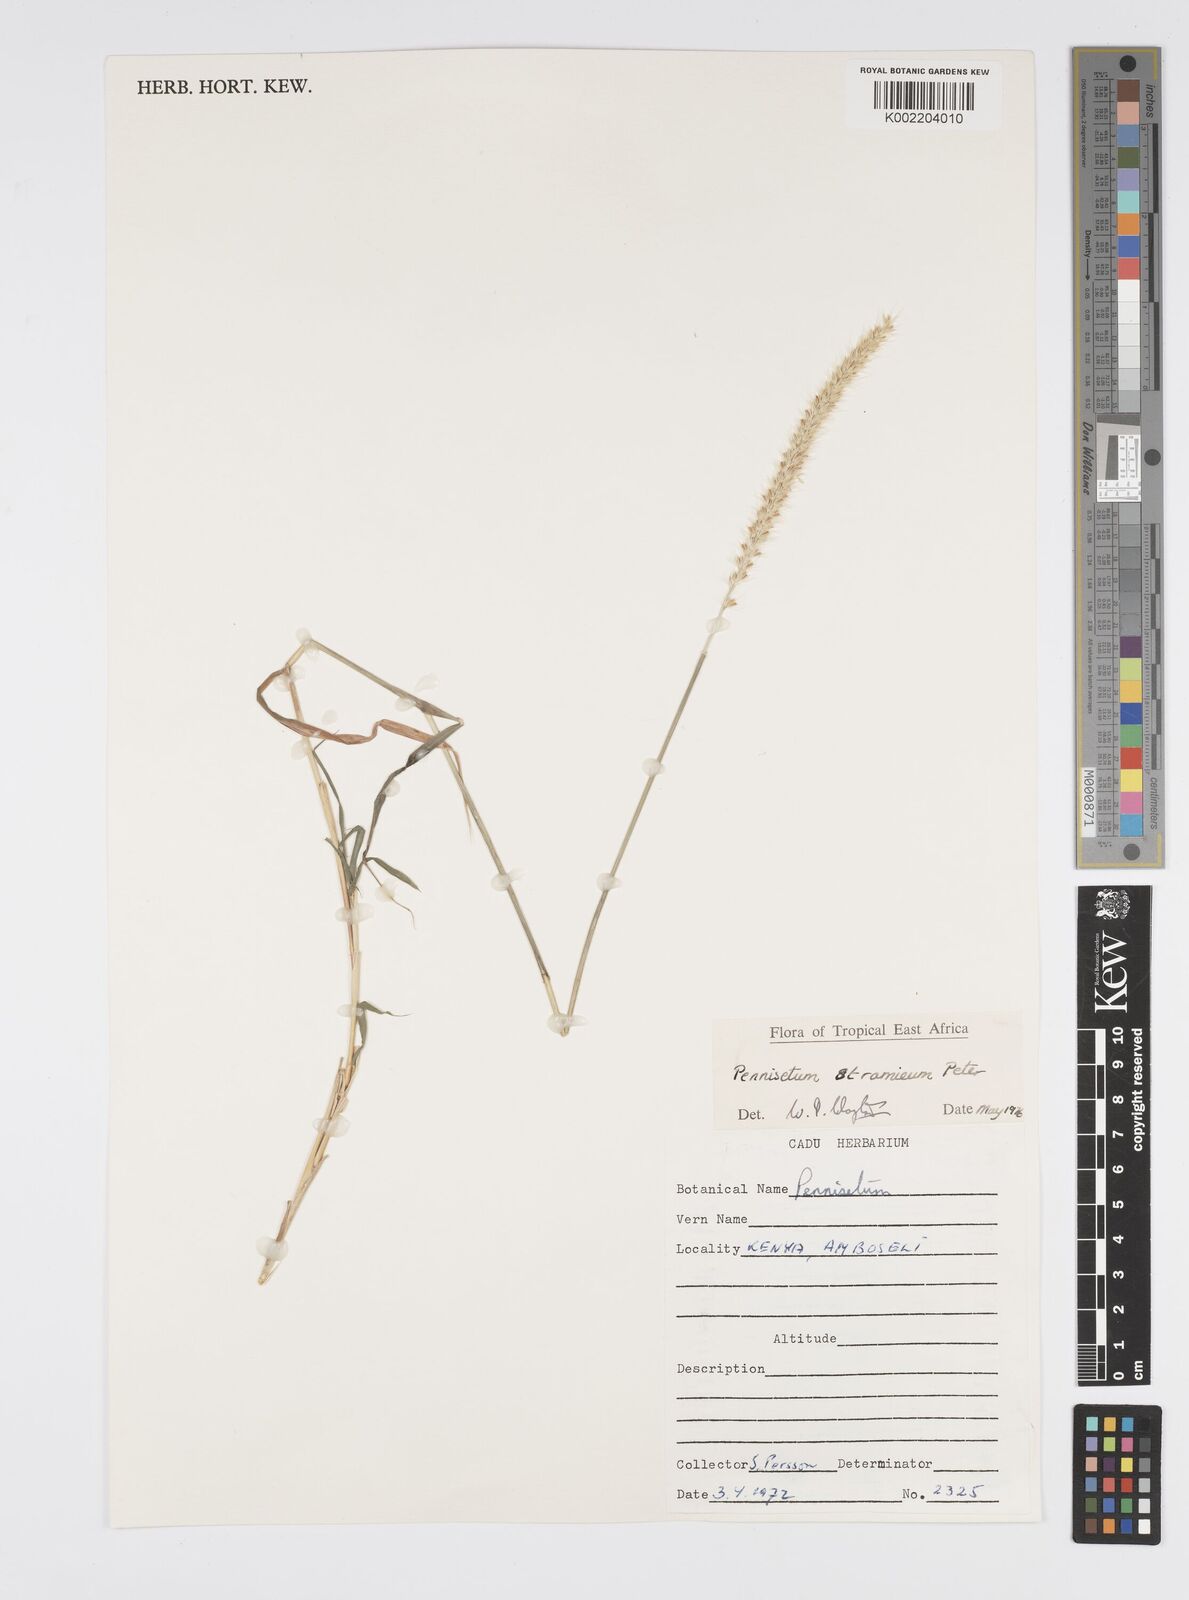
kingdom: Plantae
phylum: Tracheophyta
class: Liliopsida
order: Poales
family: Poaceae
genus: Cenchrus
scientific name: Cenchrus stramineus
